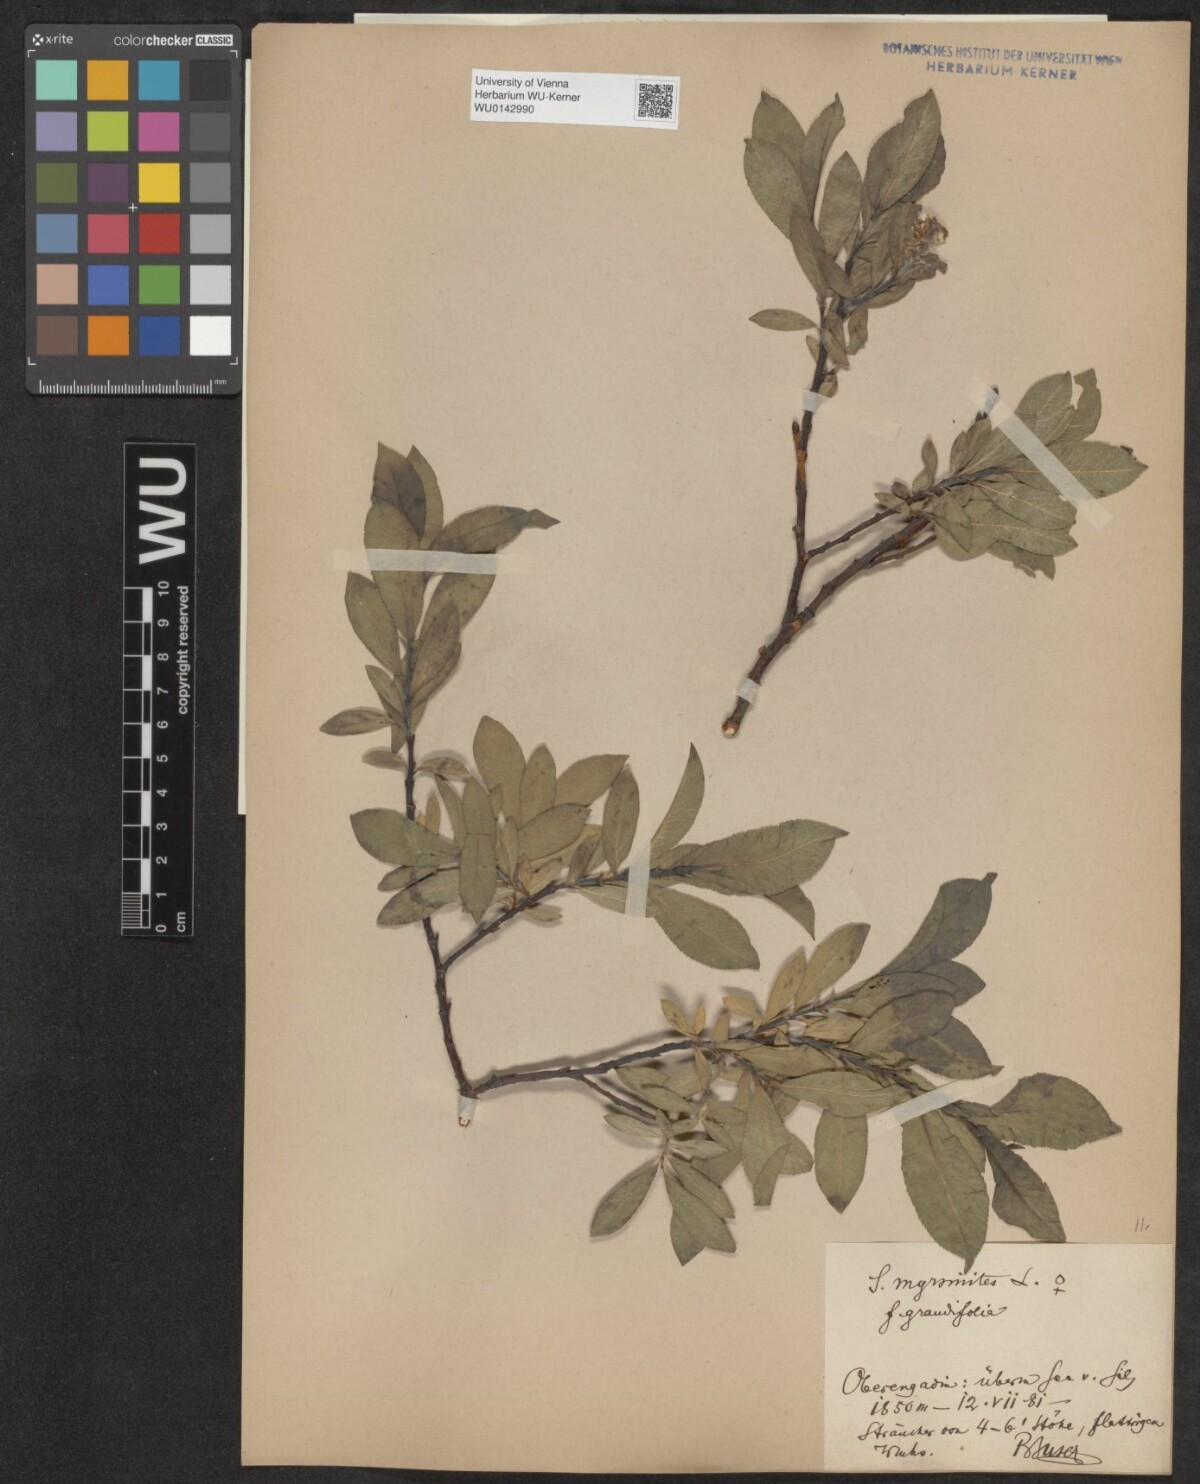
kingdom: Plantae
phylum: Tracheophyta
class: Magnoliopsida
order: Malpighiales
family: Salicaceae
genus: Salix
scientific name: Salix myrsinites
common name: Myrtle willow
